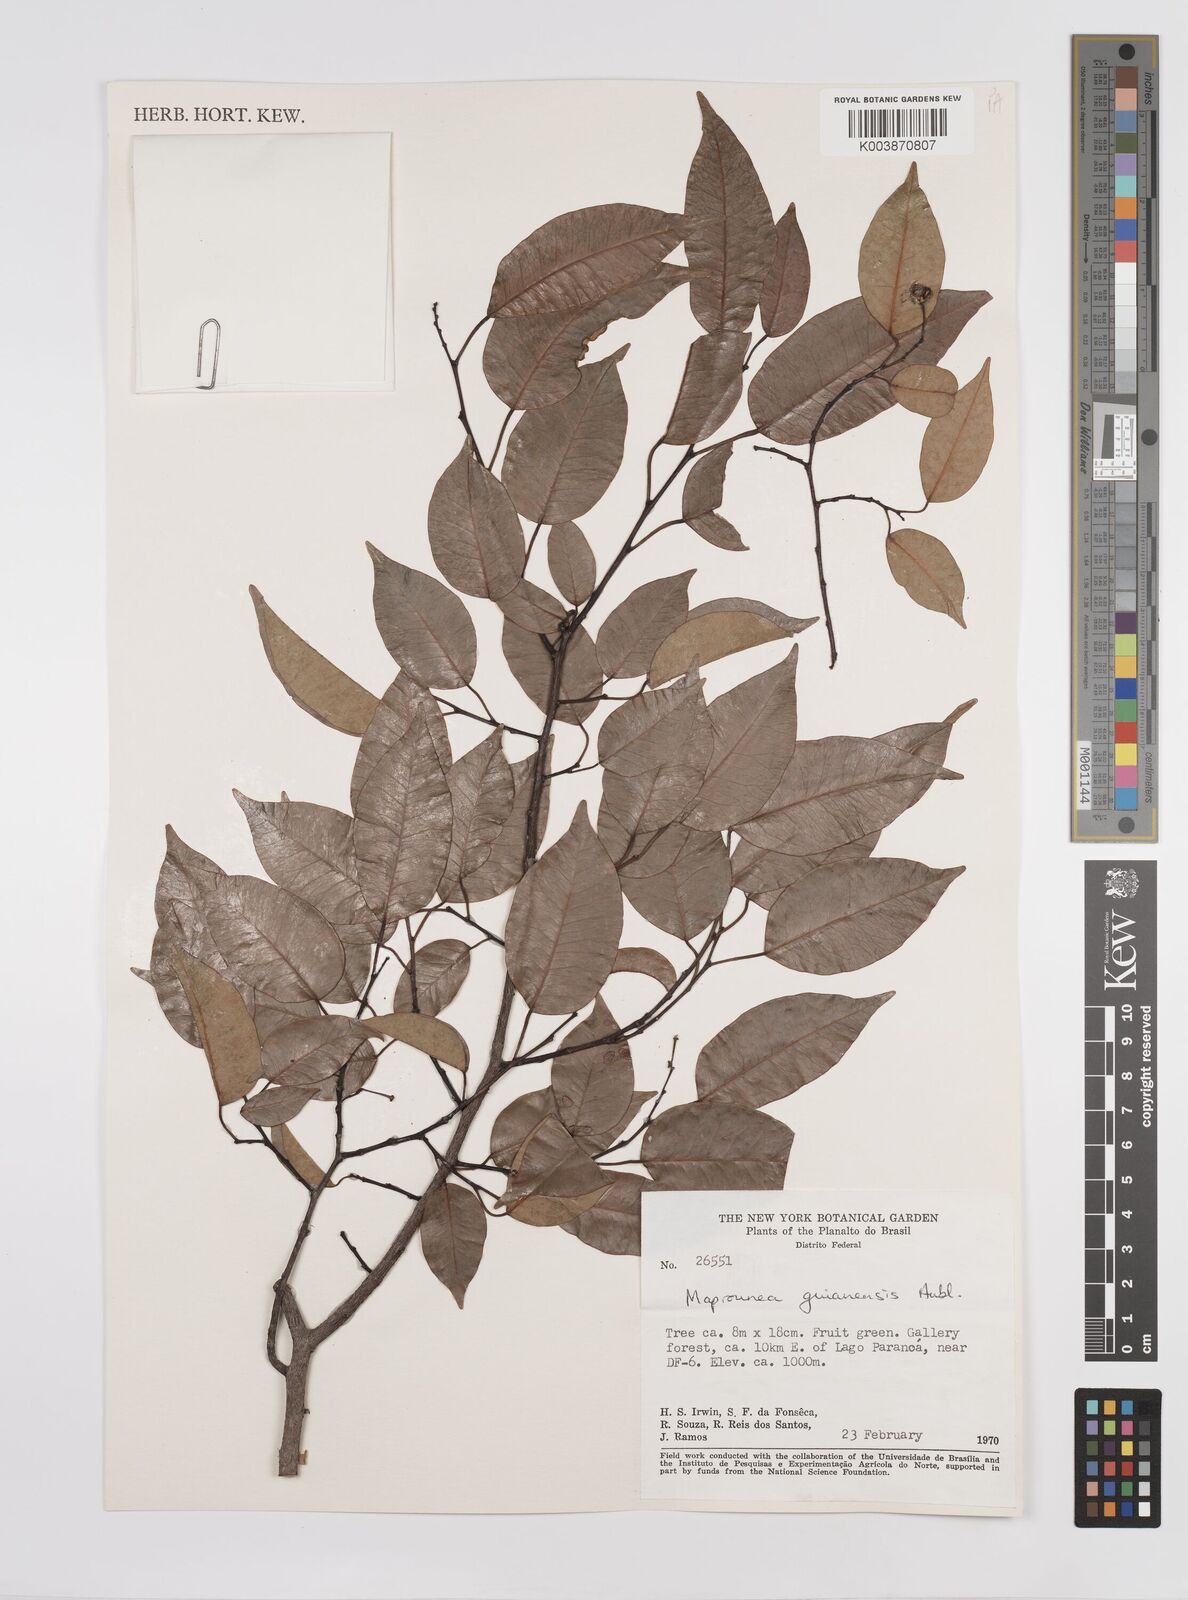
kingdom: Plantae
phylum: Tracheophyta
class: Magnoliopsida
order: Malpighiales
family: Euphorbiaceae
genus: Maprounea
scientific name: Maprounea guianensis
